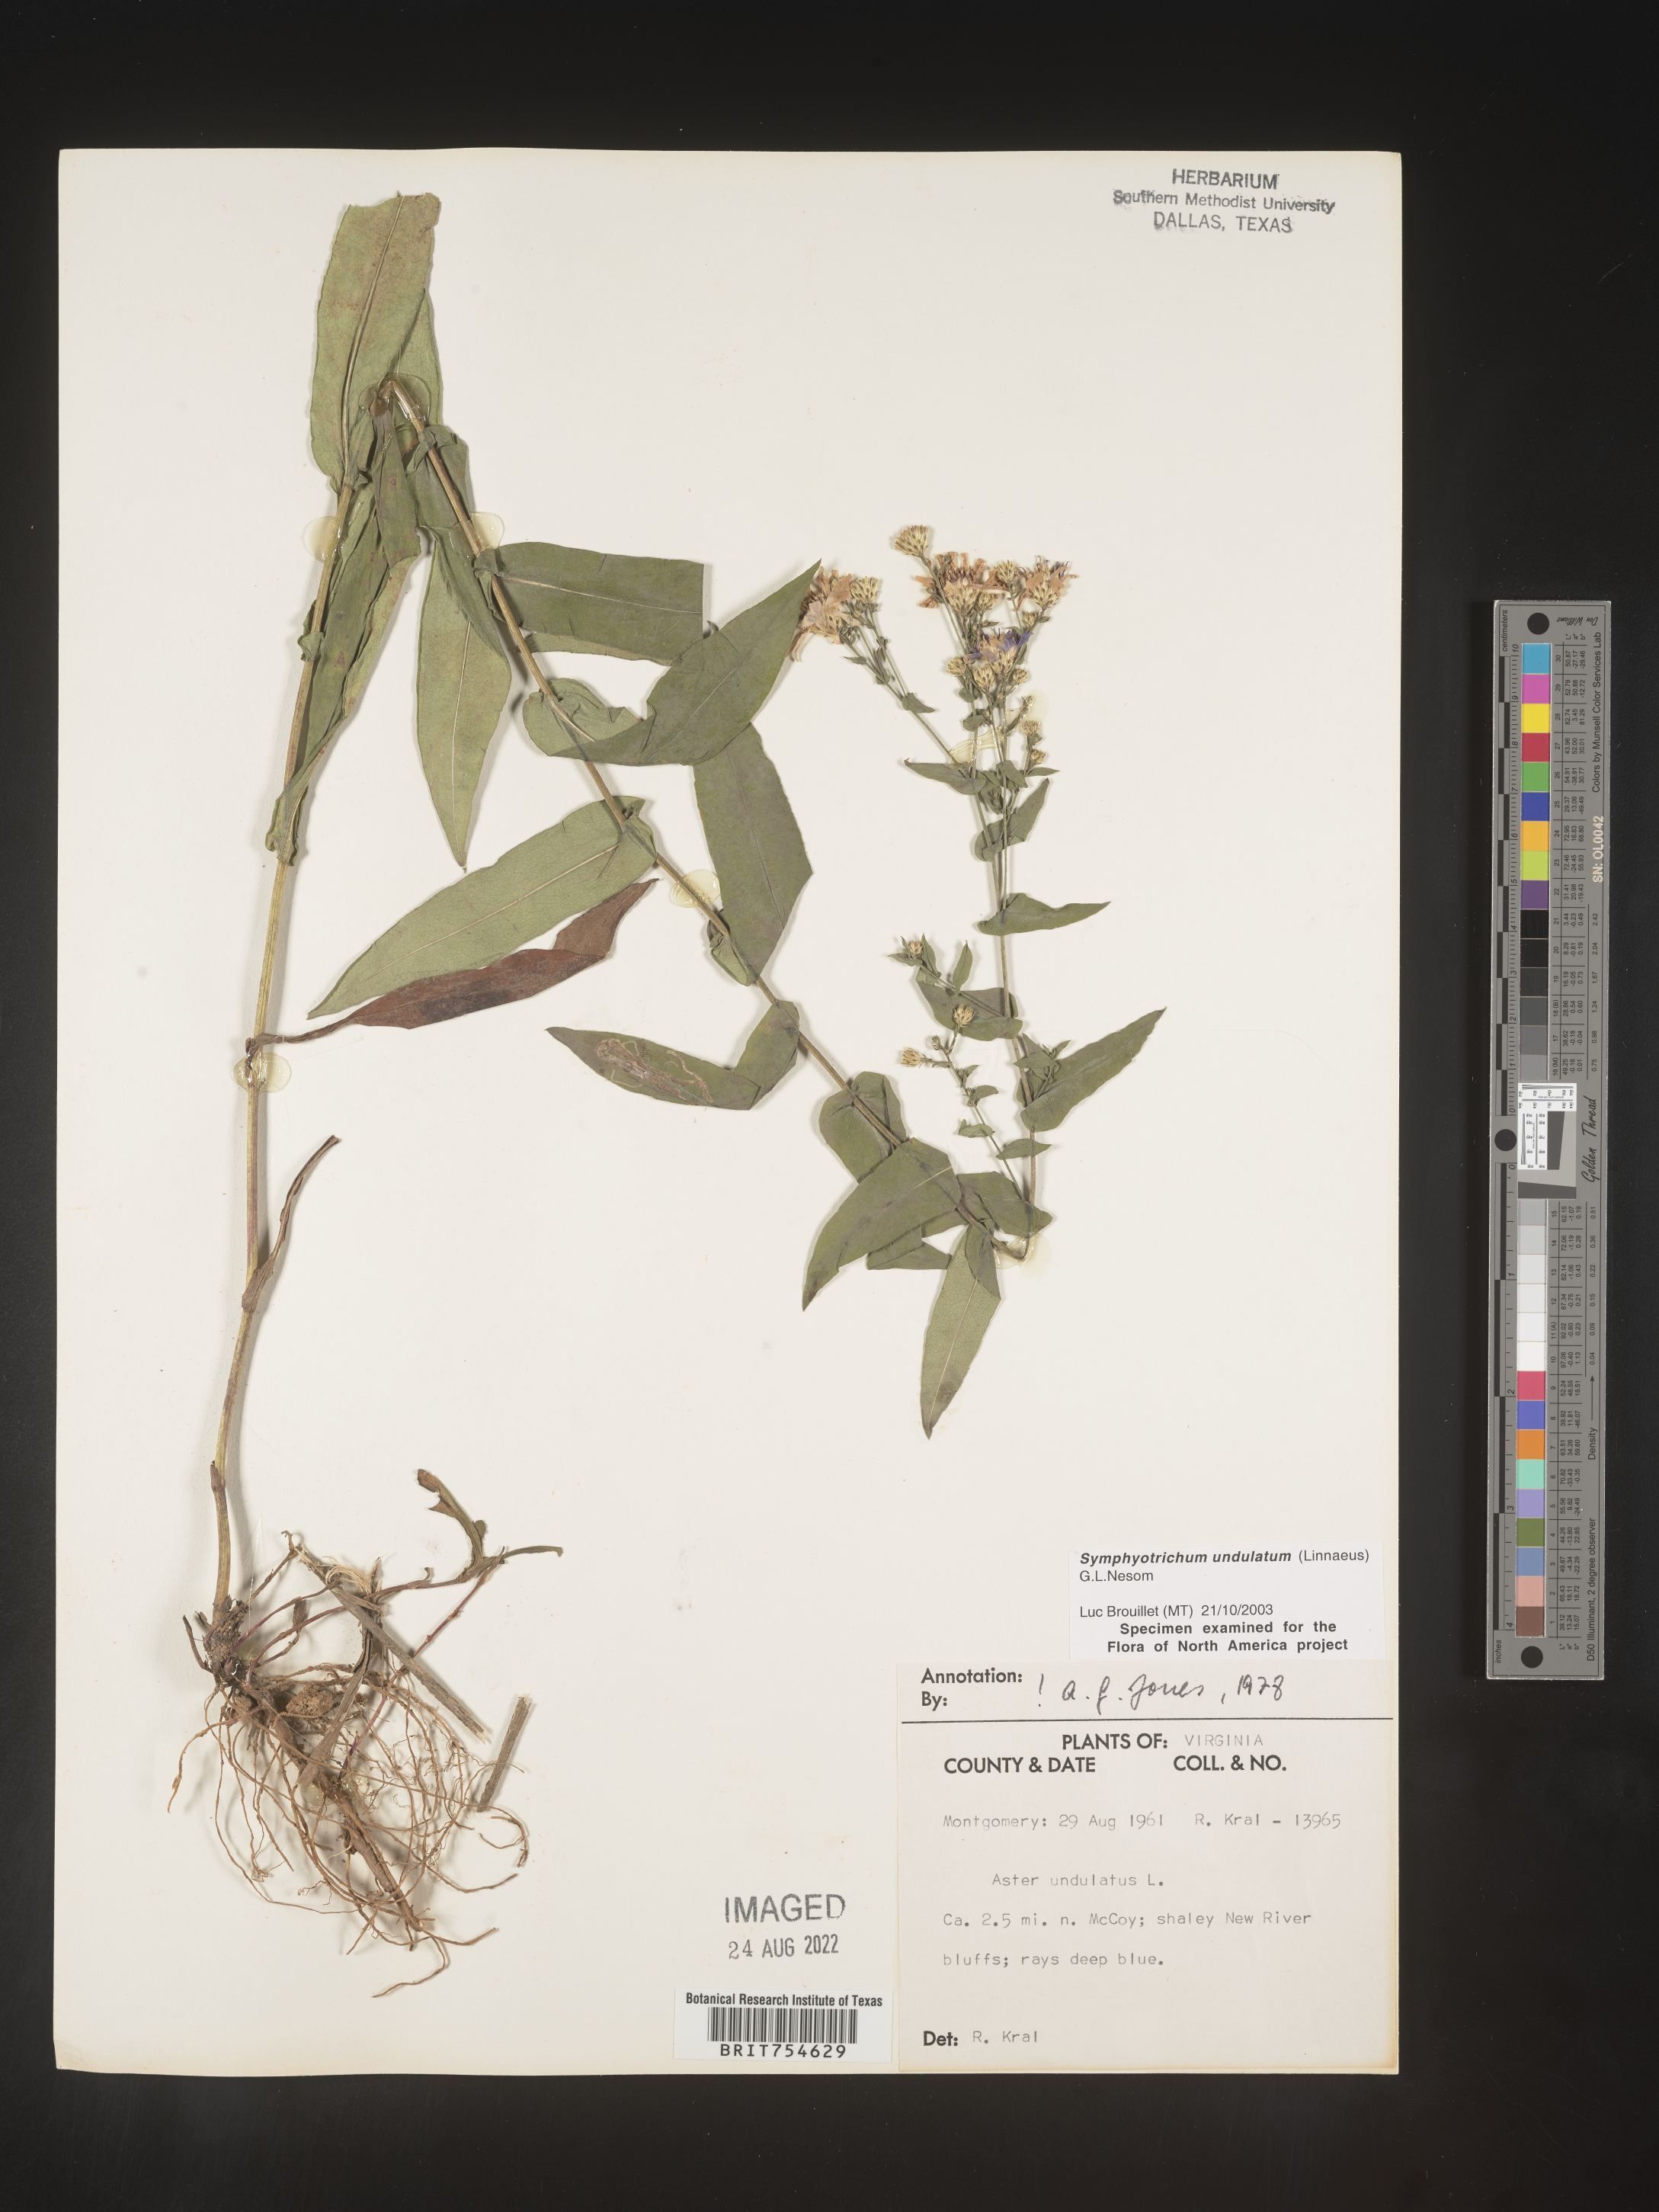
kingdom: Plantae
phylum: Tracheophyta
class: Magnoliopsida
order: Asterales
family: Asteraceae
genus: Symphyotrichum
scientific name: Symphyotrichum undulatum
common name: Clasping heart-leaf aster
